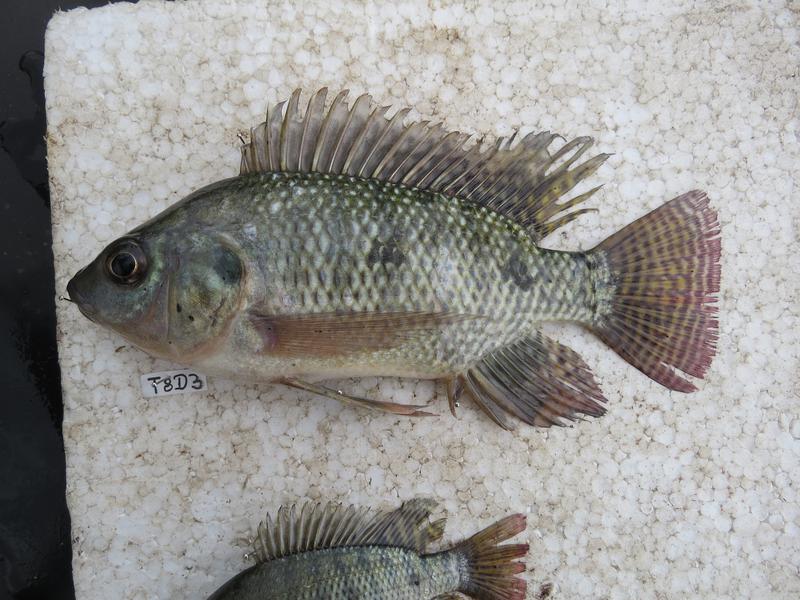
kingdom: Animalia
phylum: Chordata
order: Perciformes
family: Cichlidae
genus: Oreochromis
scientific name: Oreochromis niloticus
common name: Nile tilapia
